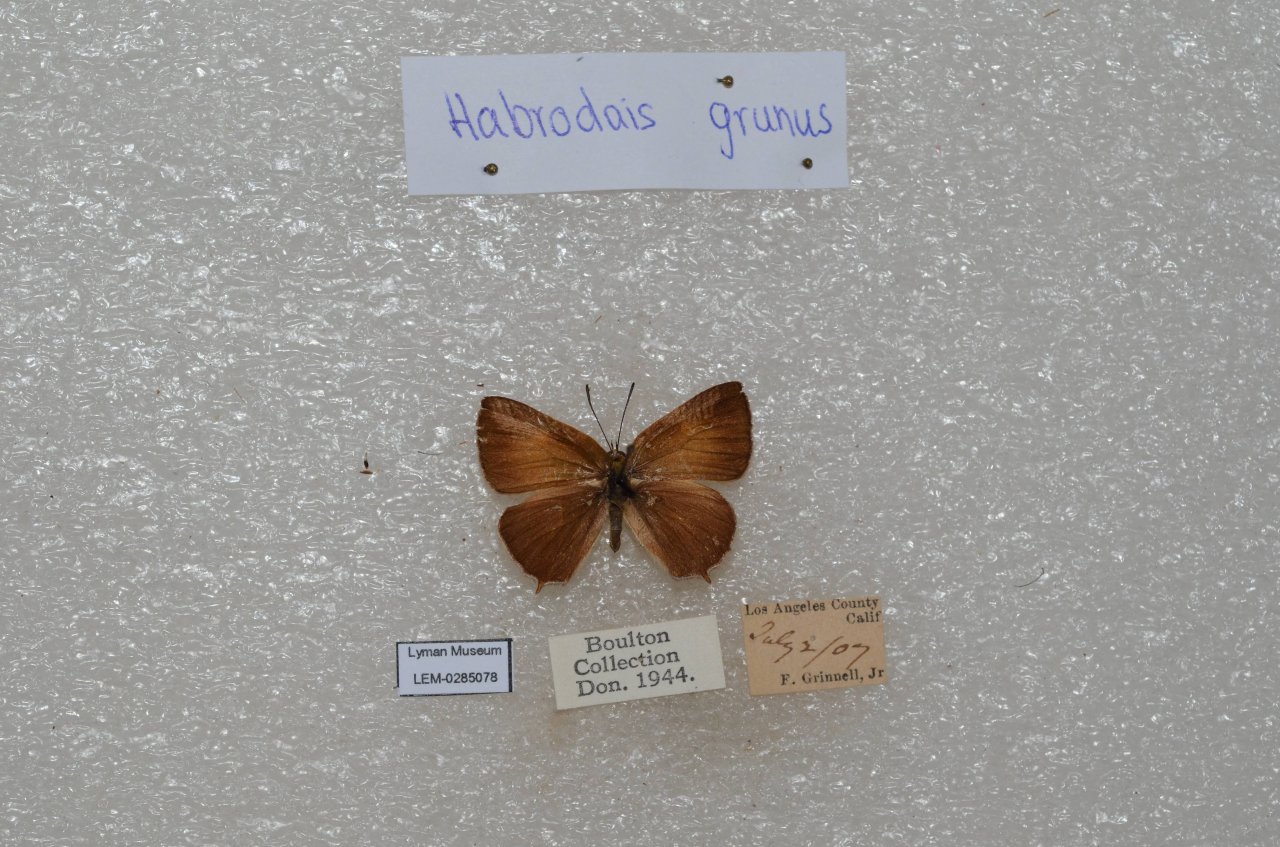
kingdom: Animalia
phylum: Arthropoda
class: Insecta
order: Lepidoptera
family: Lycaenidae
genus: Habrodais
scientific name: Habrodais grunus
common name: Golden Hairstreak
